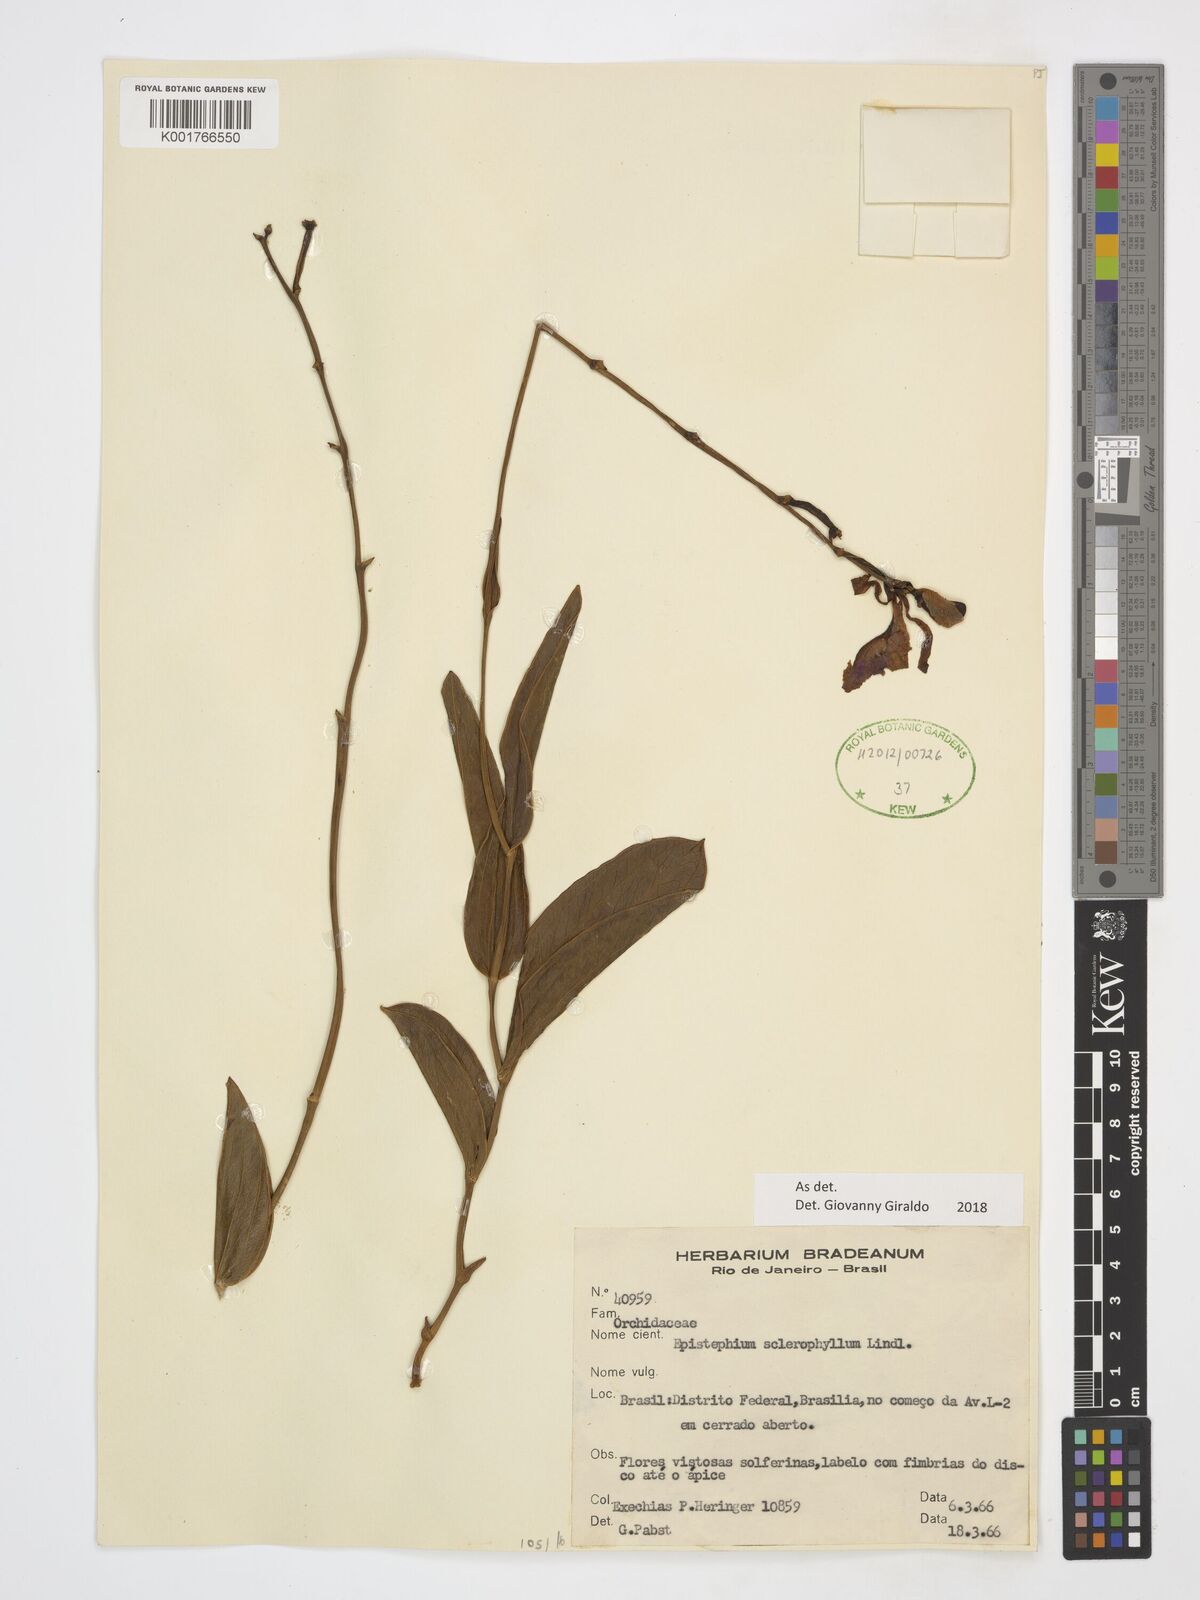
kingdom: Plantae
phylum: Tracheophyta
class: Liliopsida
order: Asparagales
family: Orchidaceae
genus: Epistephium
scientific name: Epistephium sclerophyllum
